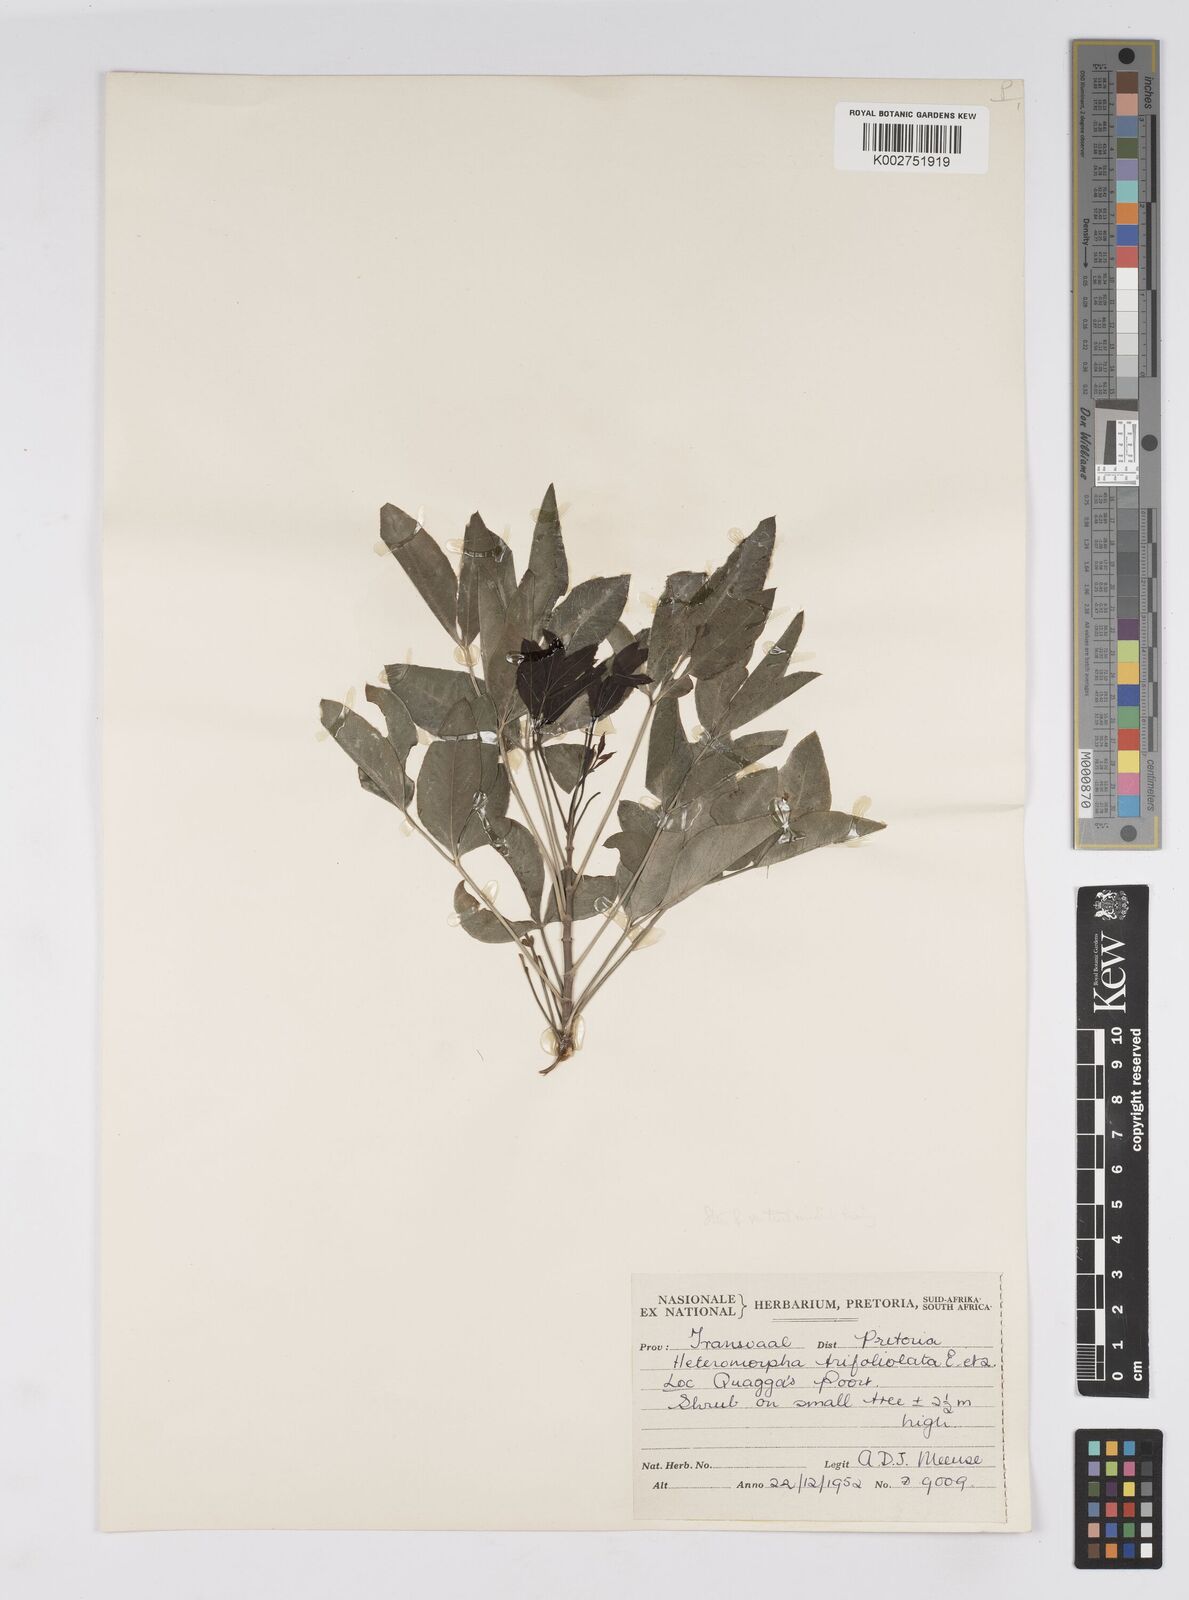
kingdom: Plantae
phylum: Tracheophyta
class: Magnoliopsida
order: Apiales
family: Apiaceae
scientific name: Apiaceae
